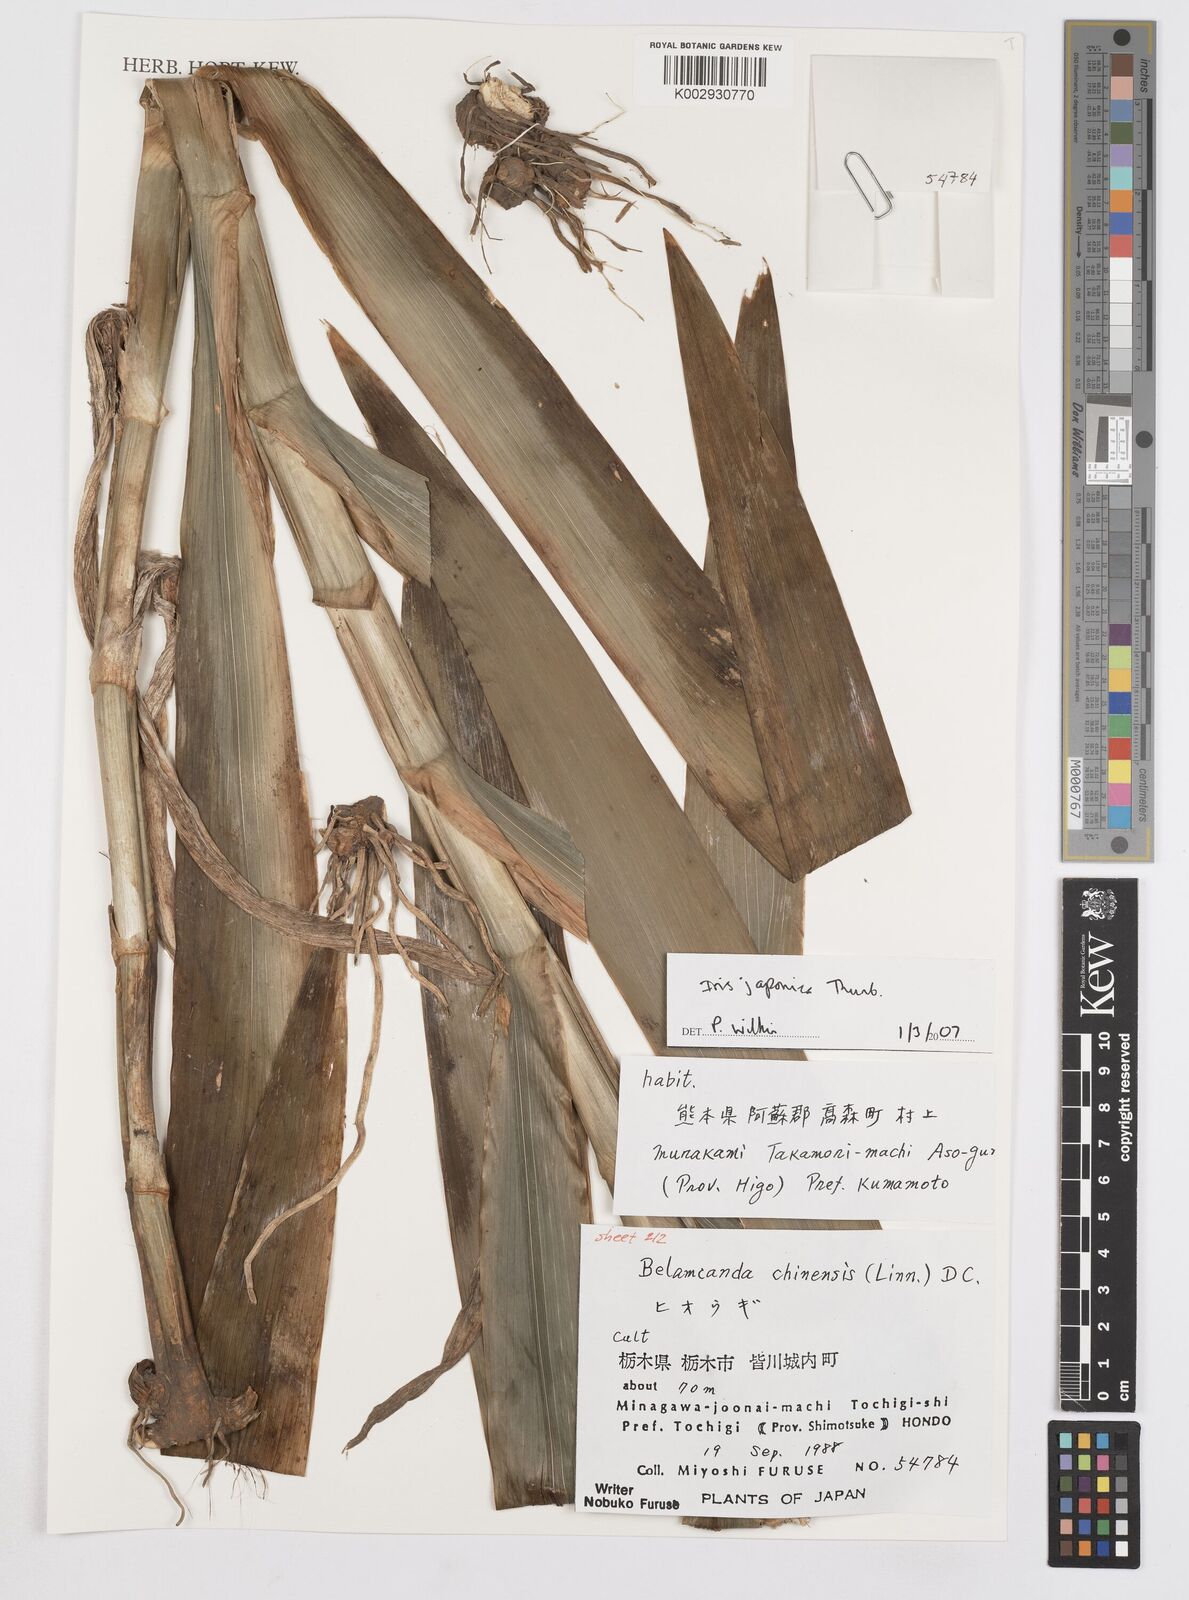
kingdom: Plantae
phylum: Tracheophyta
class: Liliopsida
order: Asparagales
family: Iridaceae
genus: Iris
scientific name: Iris japonica
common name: Butterfly-flower
